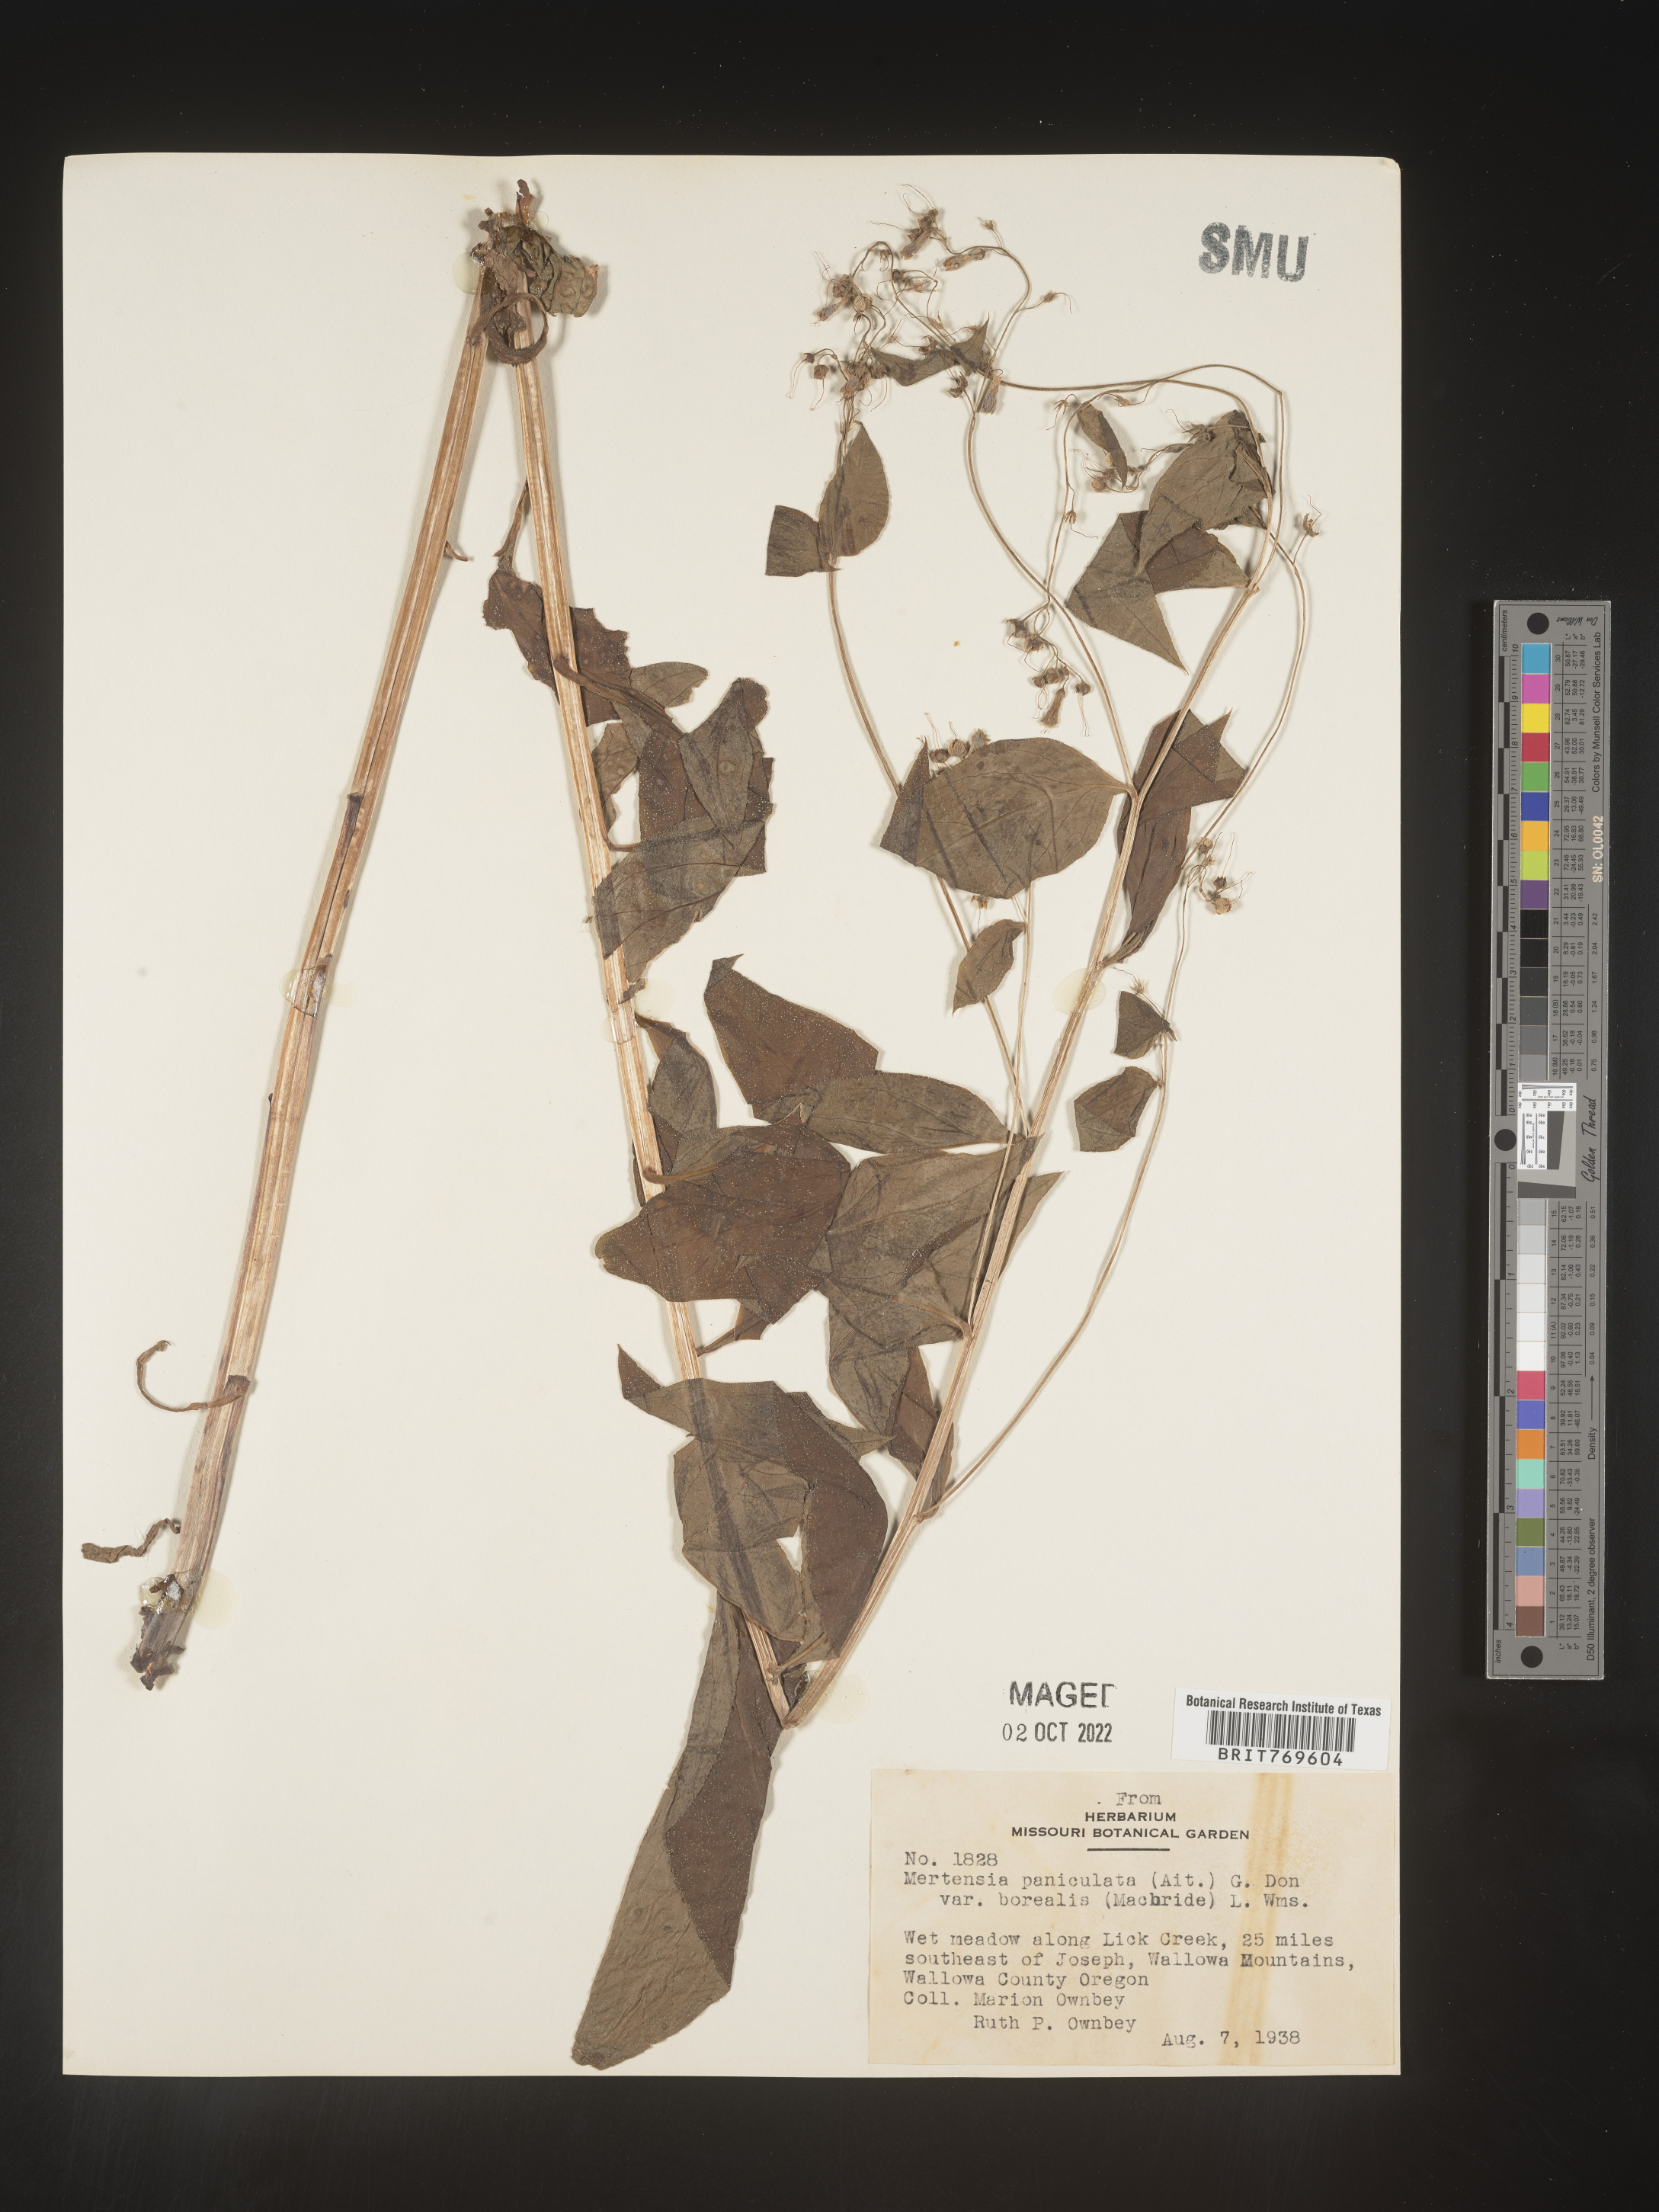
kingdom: Plantae
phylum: Tracheophyta
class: Magnoliopsida
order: Boraginales
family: Boraginaceae
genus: Mertensia
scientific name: Mertensia
